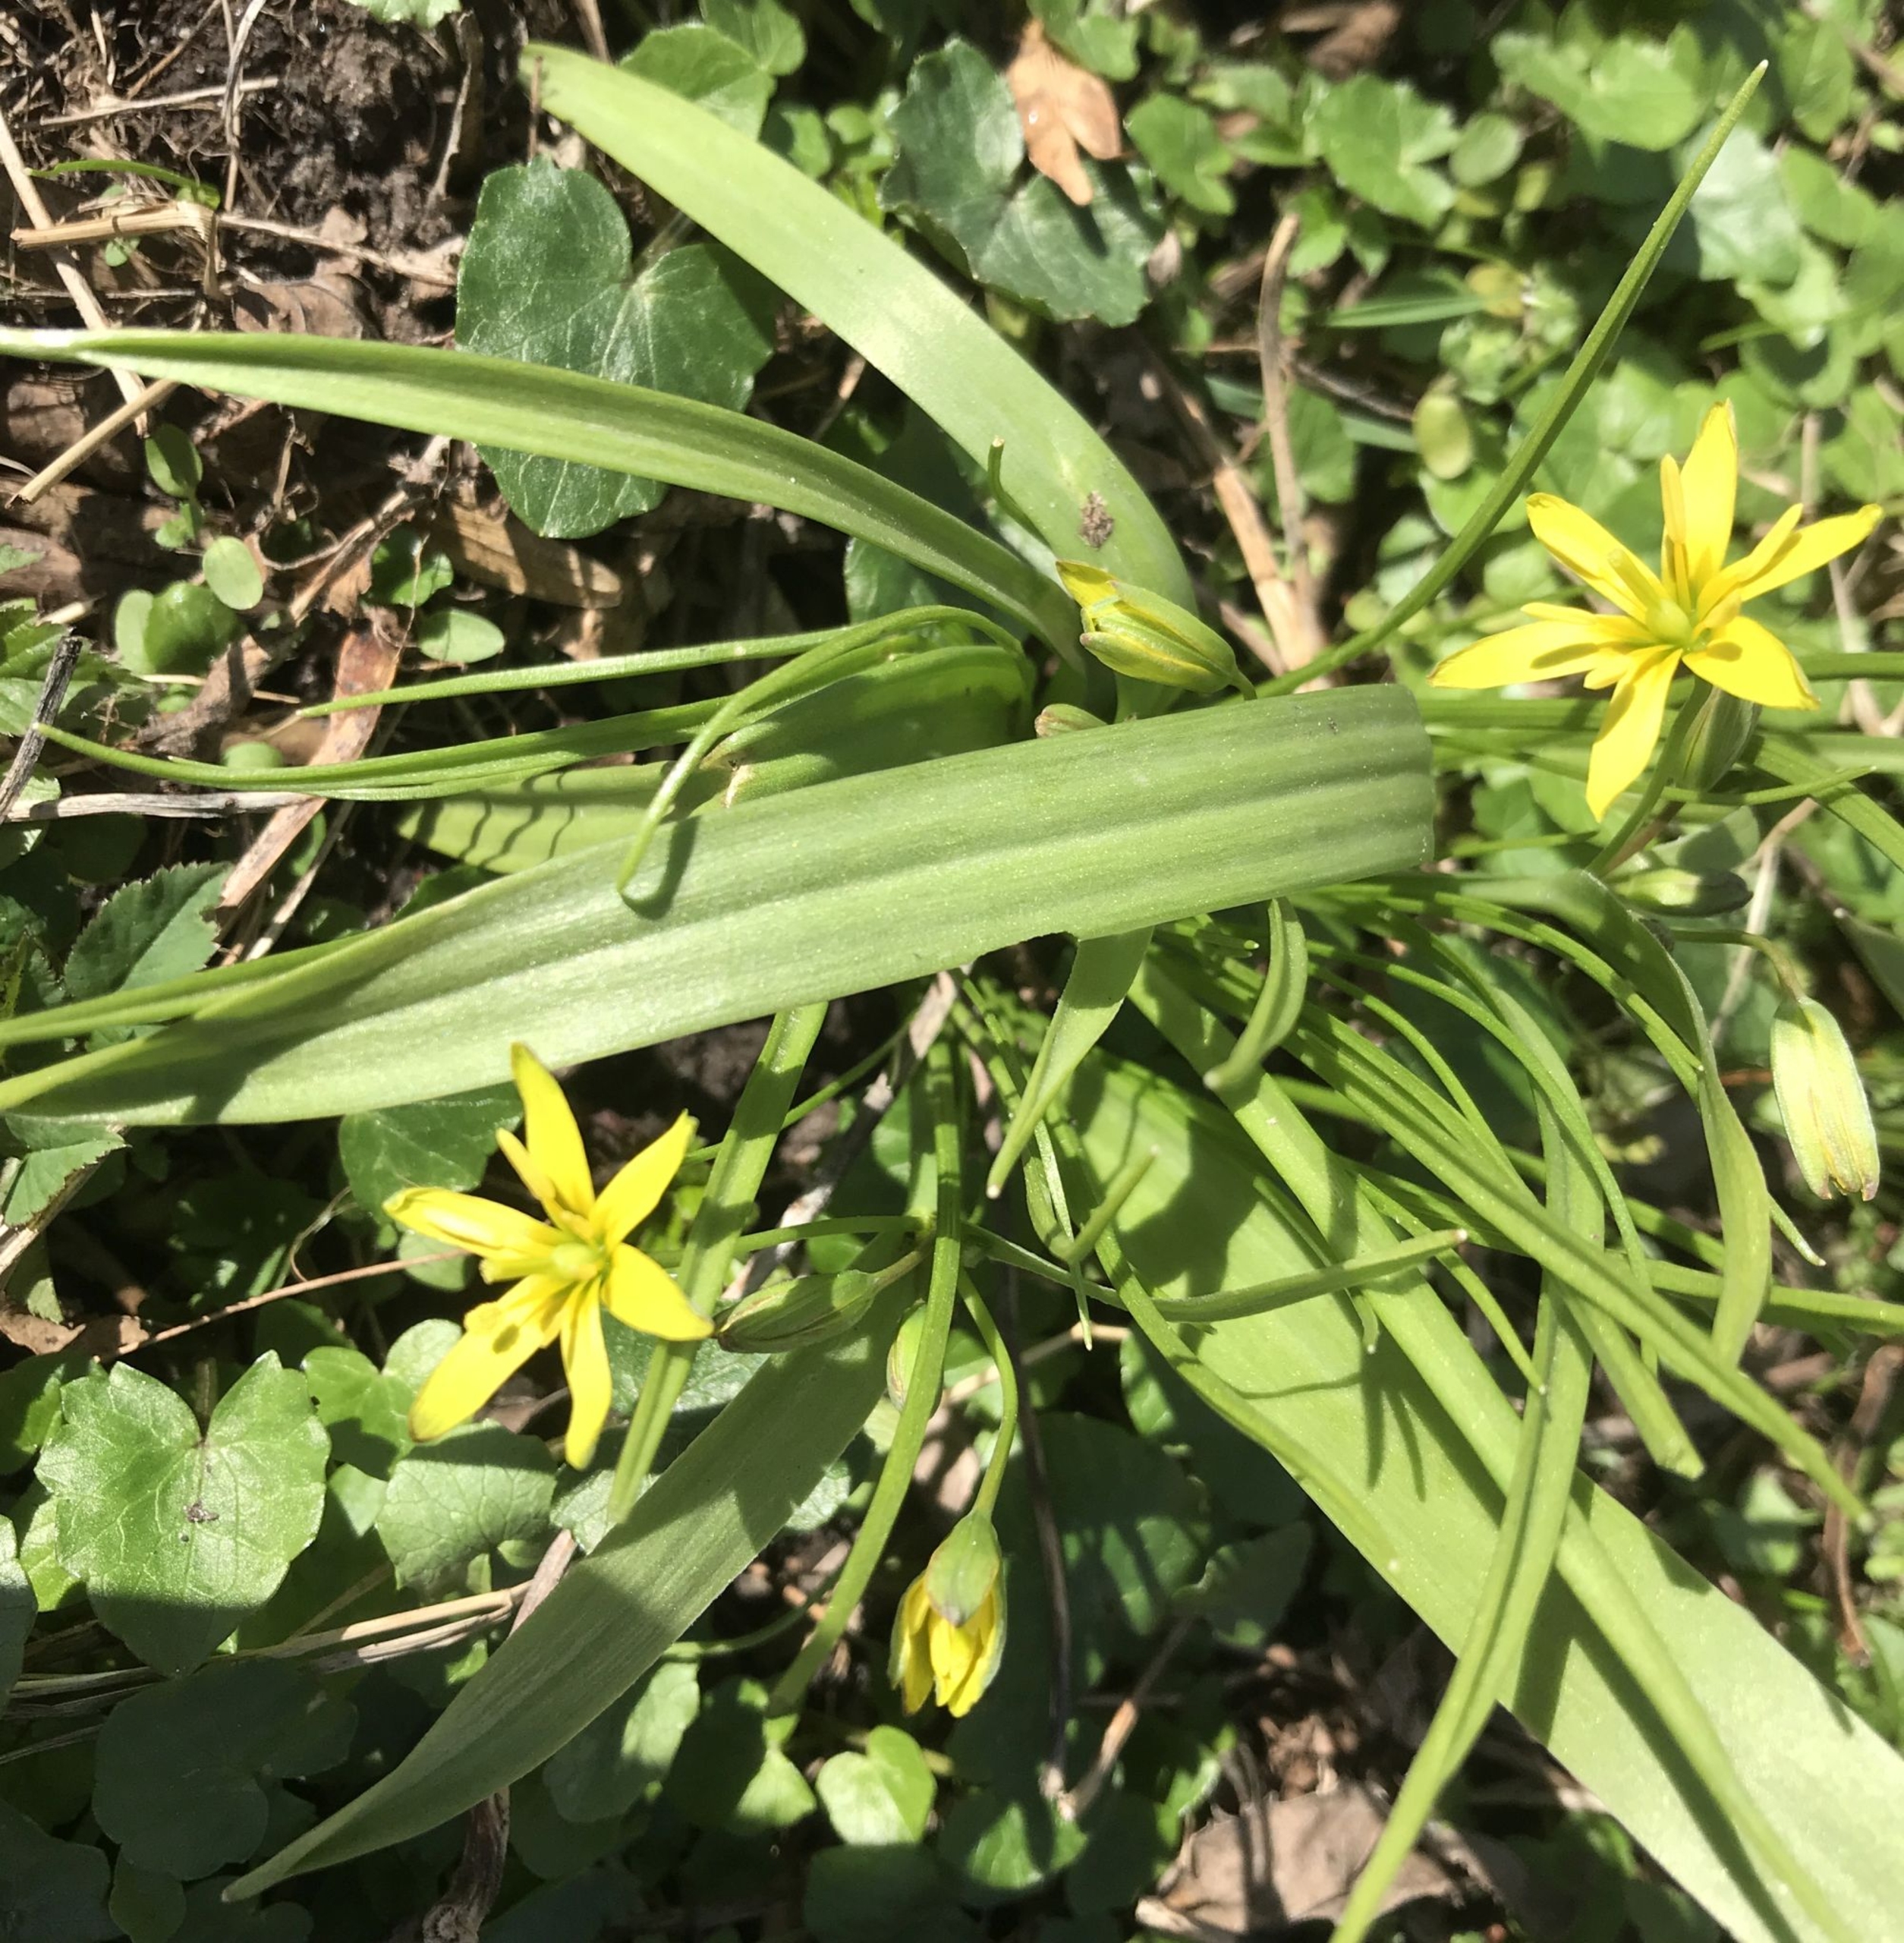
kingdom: Plantae
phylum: Tracheophyta
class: Liliopsida
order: Liliales
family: Liliaceae
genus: Gagea
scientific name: Gagea lutea
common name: Almindelig guldstjerne
